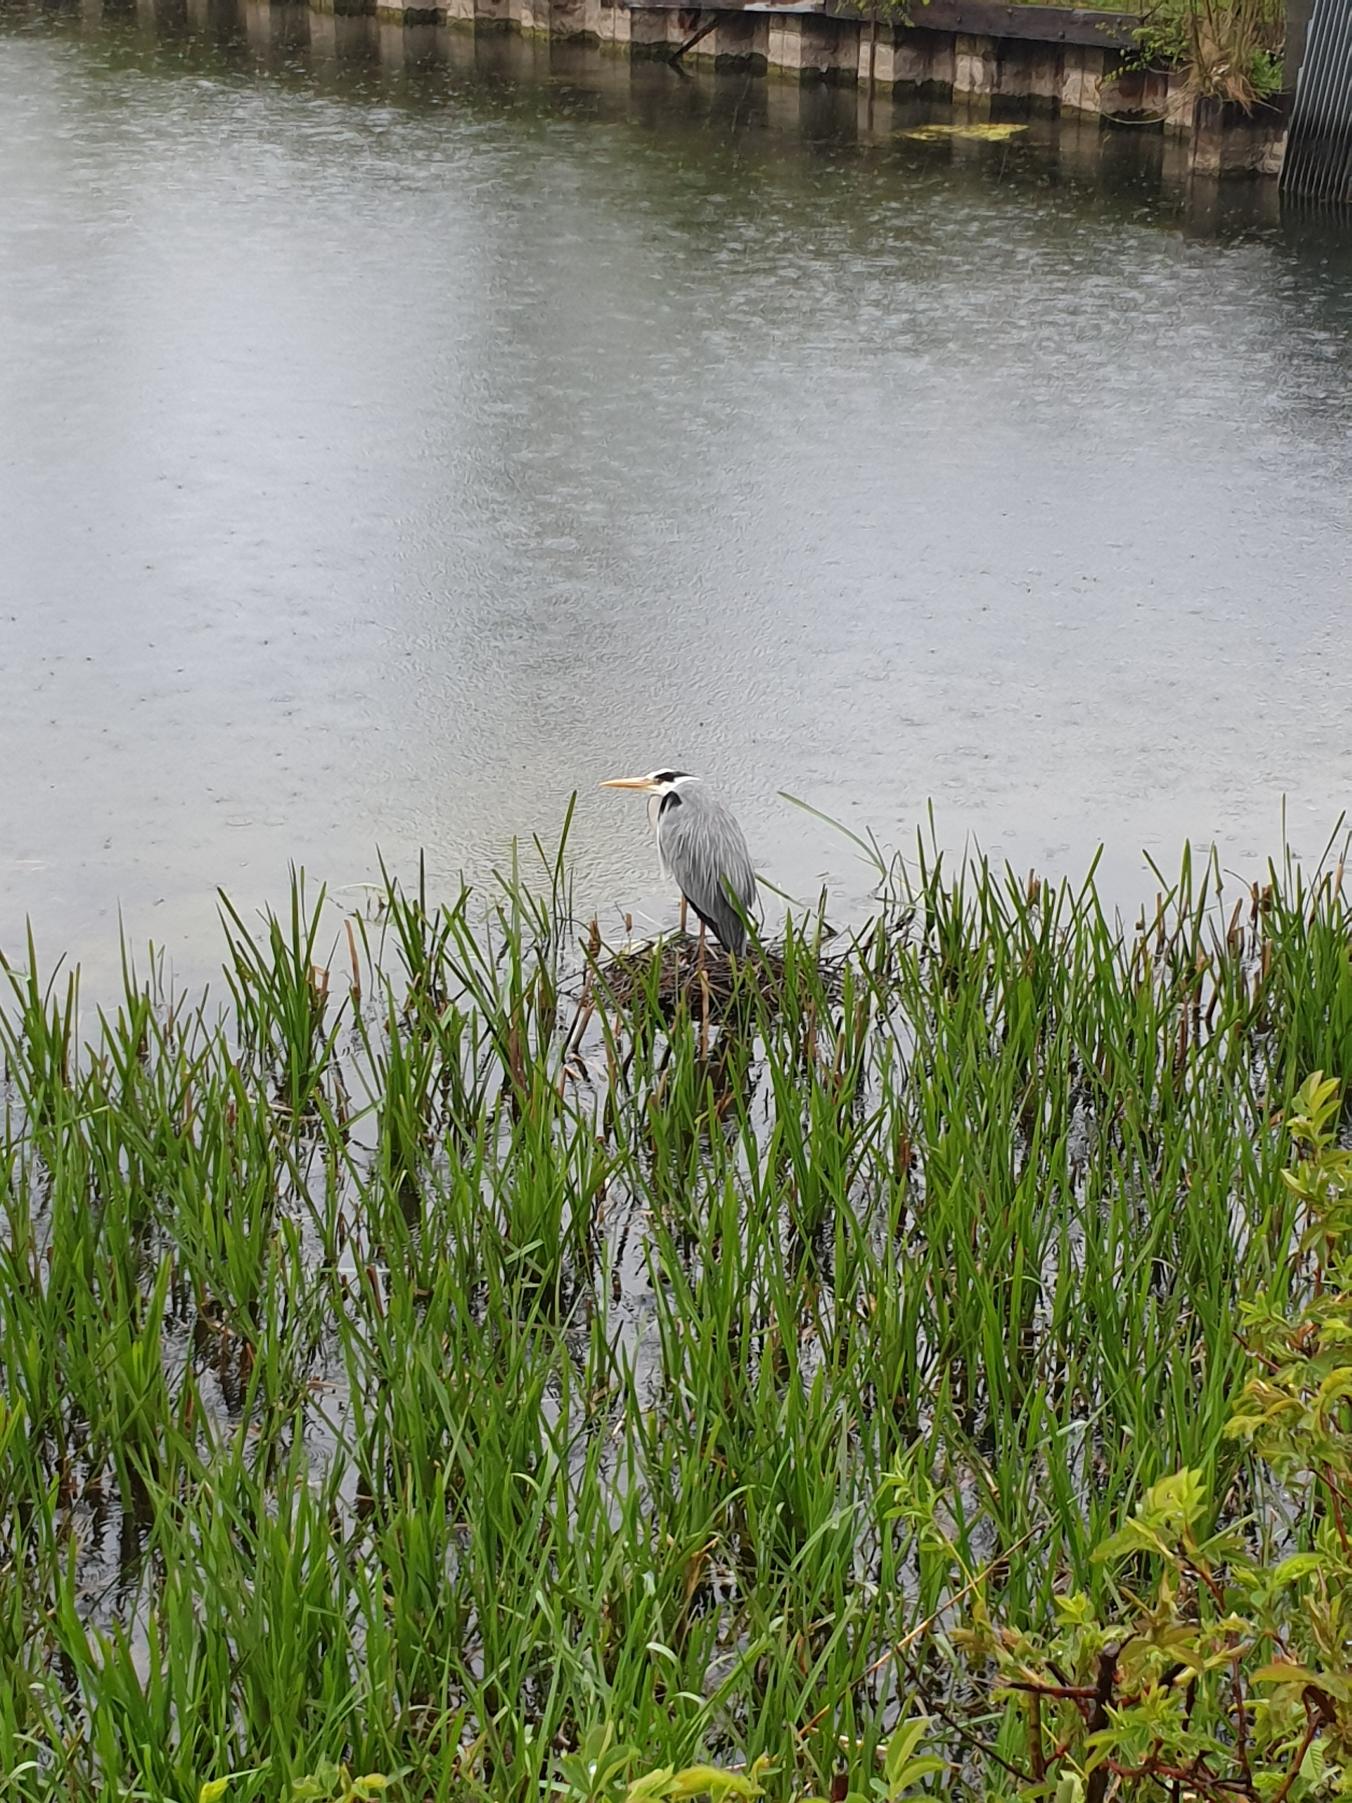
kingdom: Animalia
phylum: Chordata
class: Aves
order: Pelecaniformes
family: Ardeidae
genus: Ardea
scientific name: Ardea cinerea
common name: Fiskehejre
